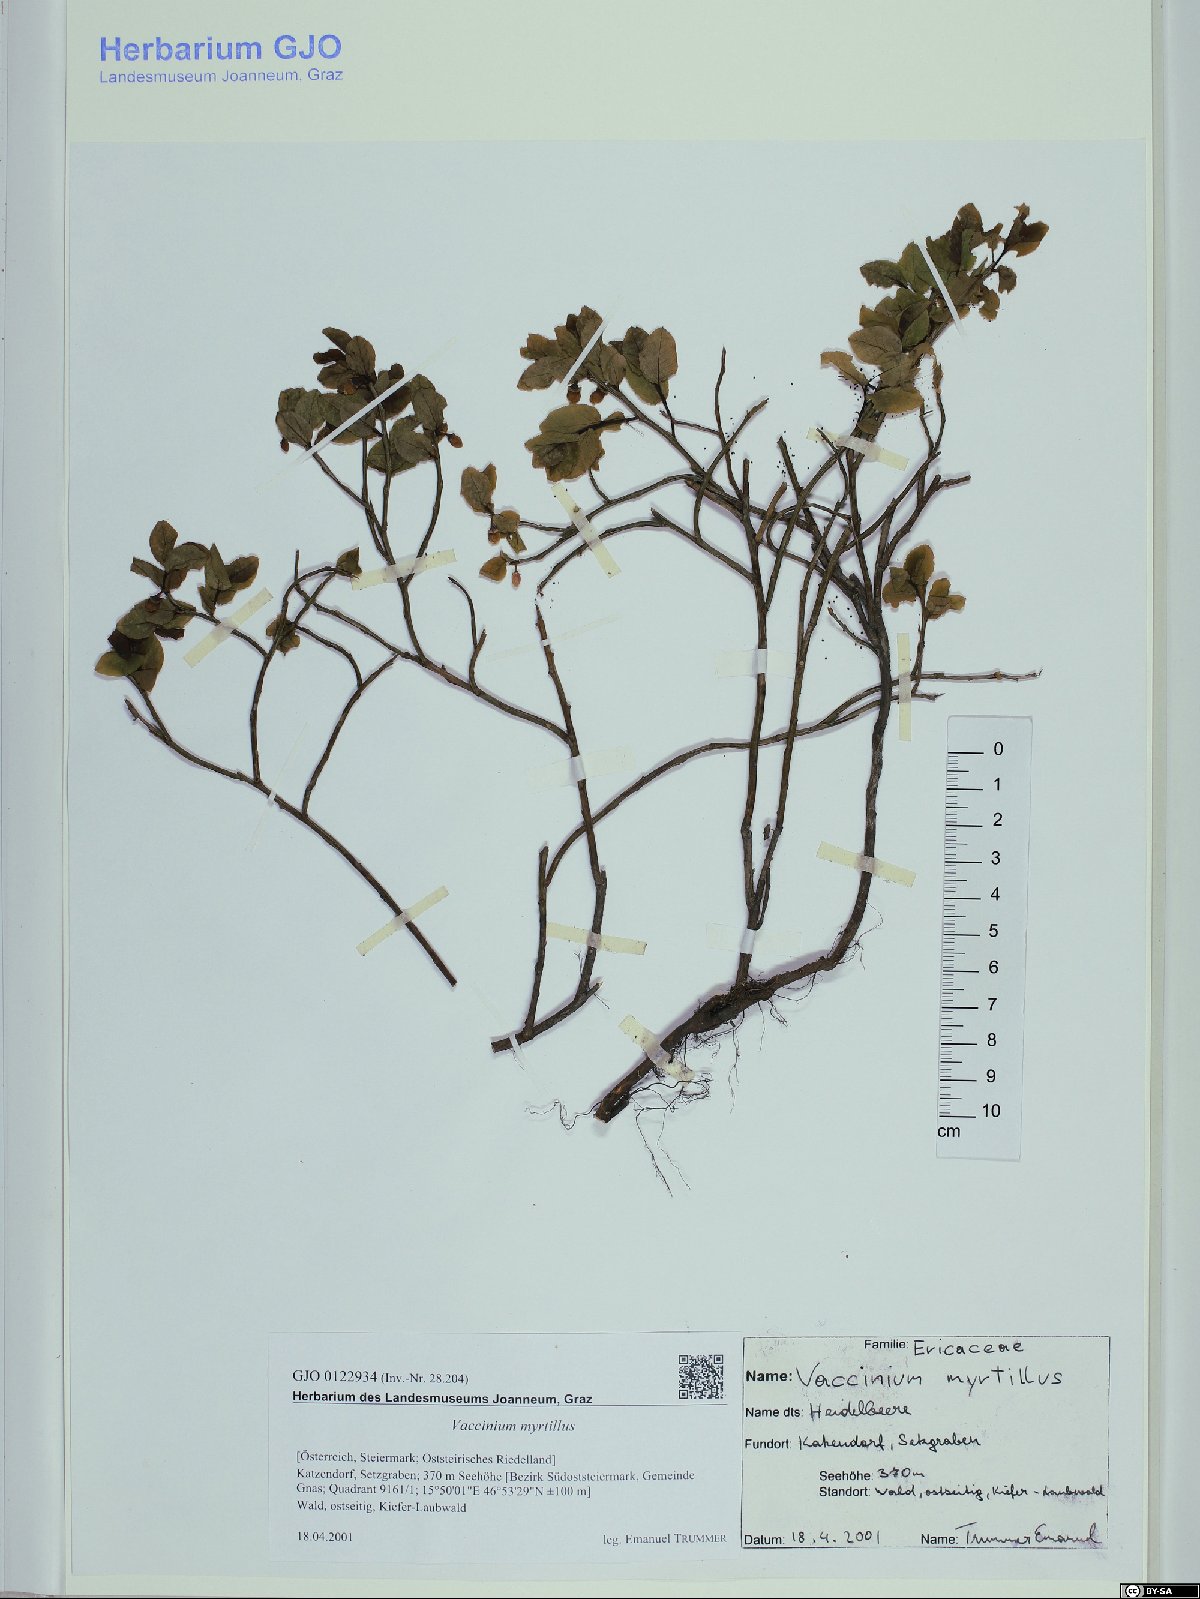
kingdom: Plantae
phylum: Tracheophyta
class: Magnoliopsida
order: Ericales
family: Ericaceae
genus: Vaccinium
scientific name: Vaccinium myrtillus
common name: Bilberry
